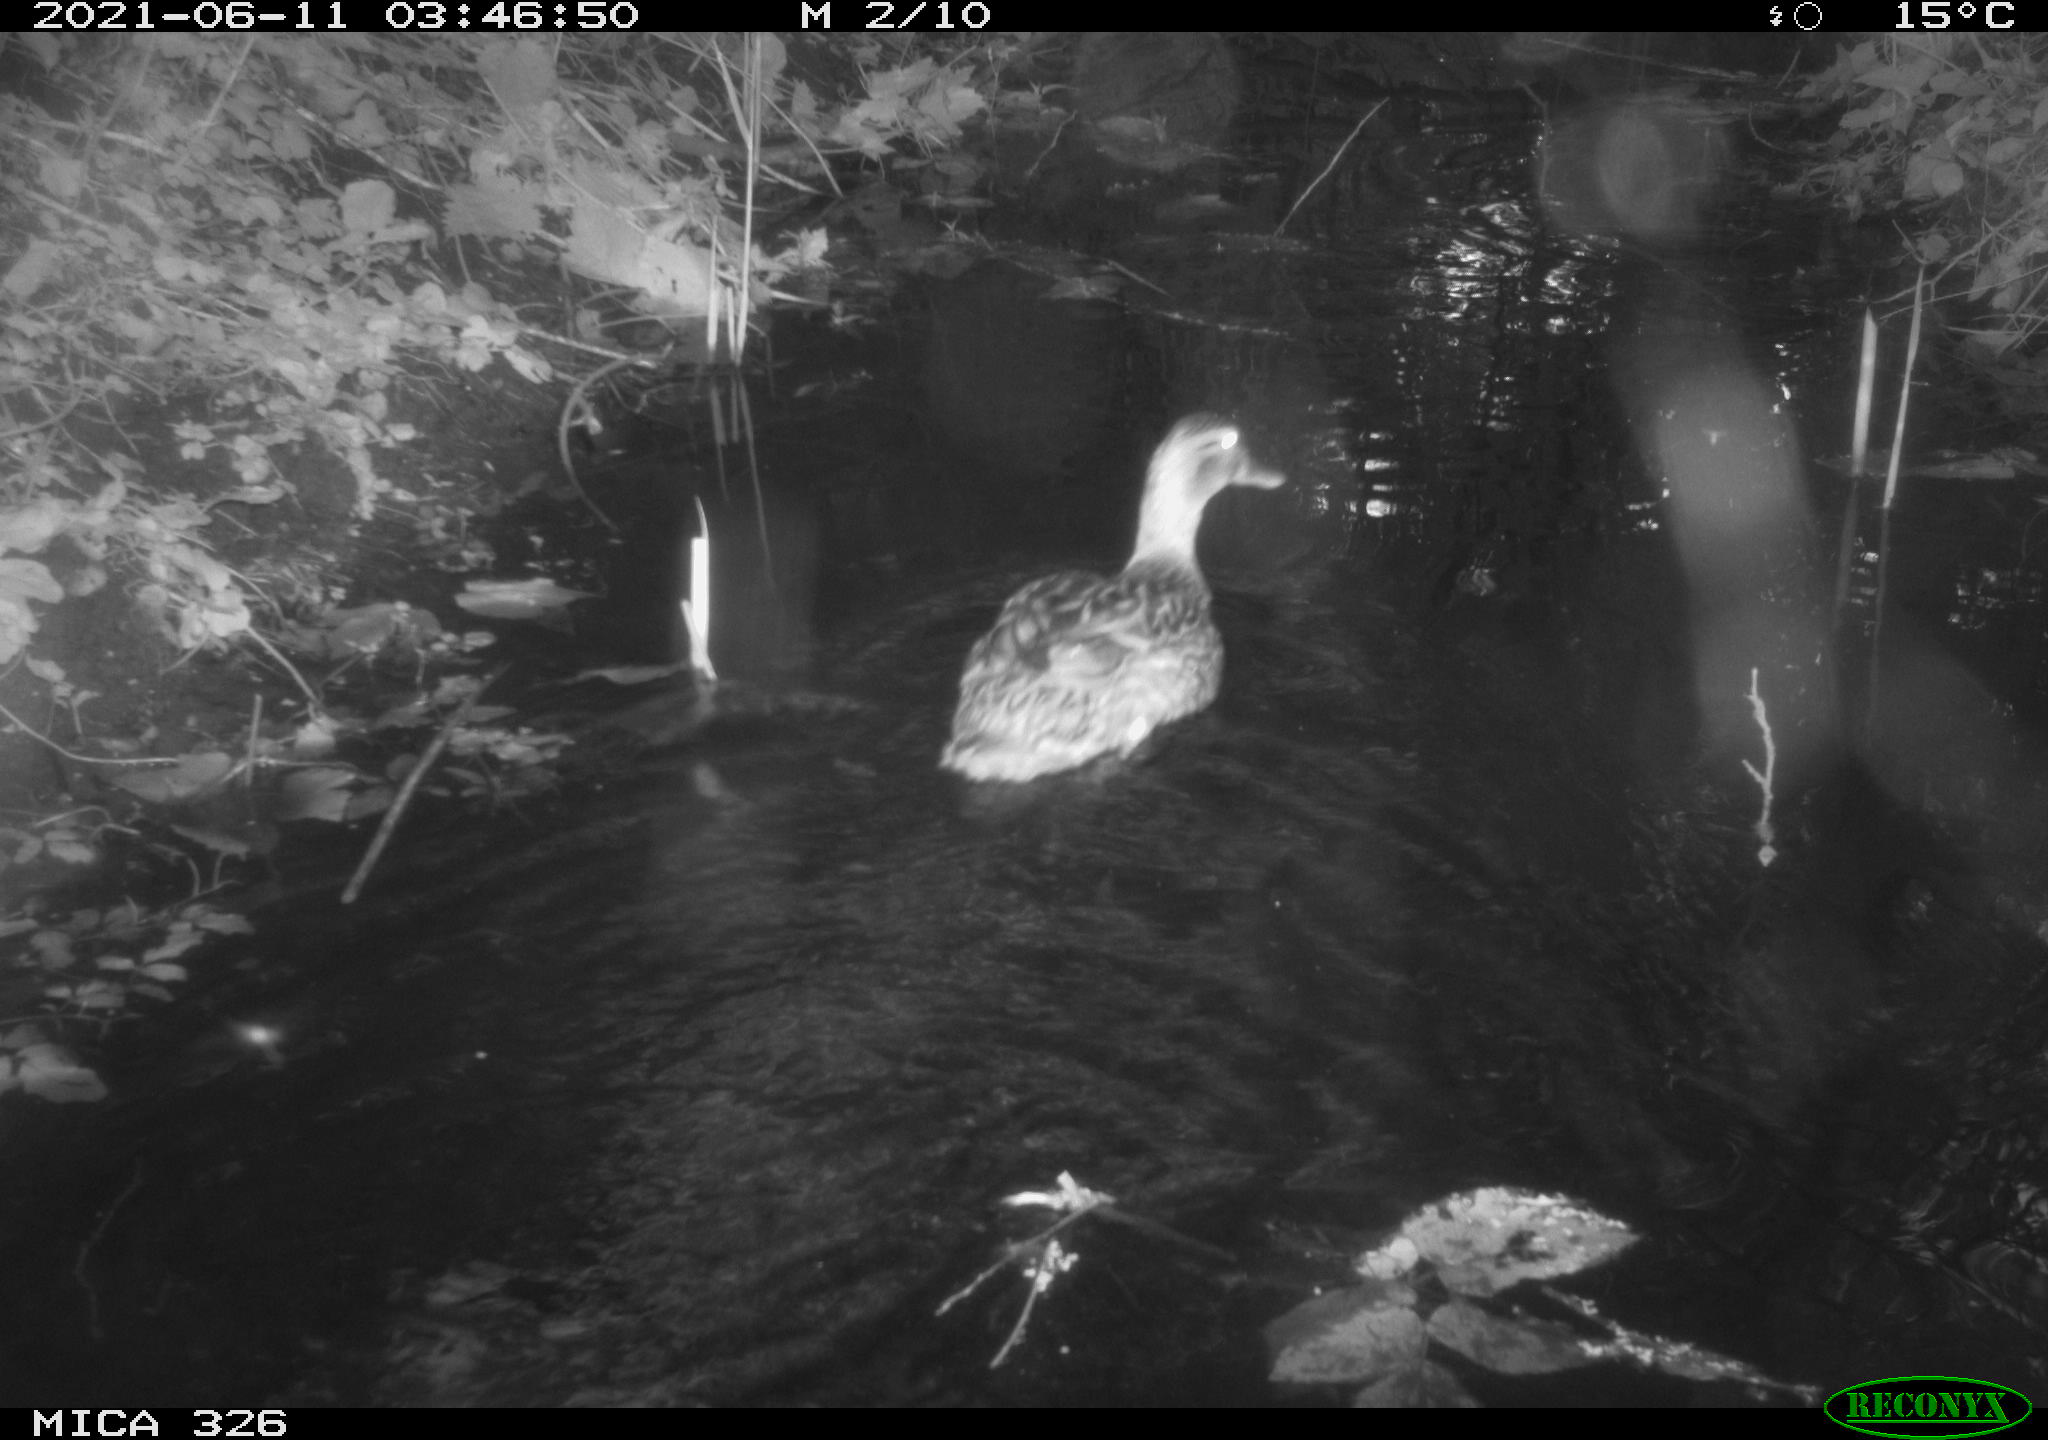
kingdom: Animalia
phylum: Chordata
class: Aves
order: Anseriformes
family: Anatidae
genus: Anas
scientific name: Anas platyrhynchos
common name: Mallard
